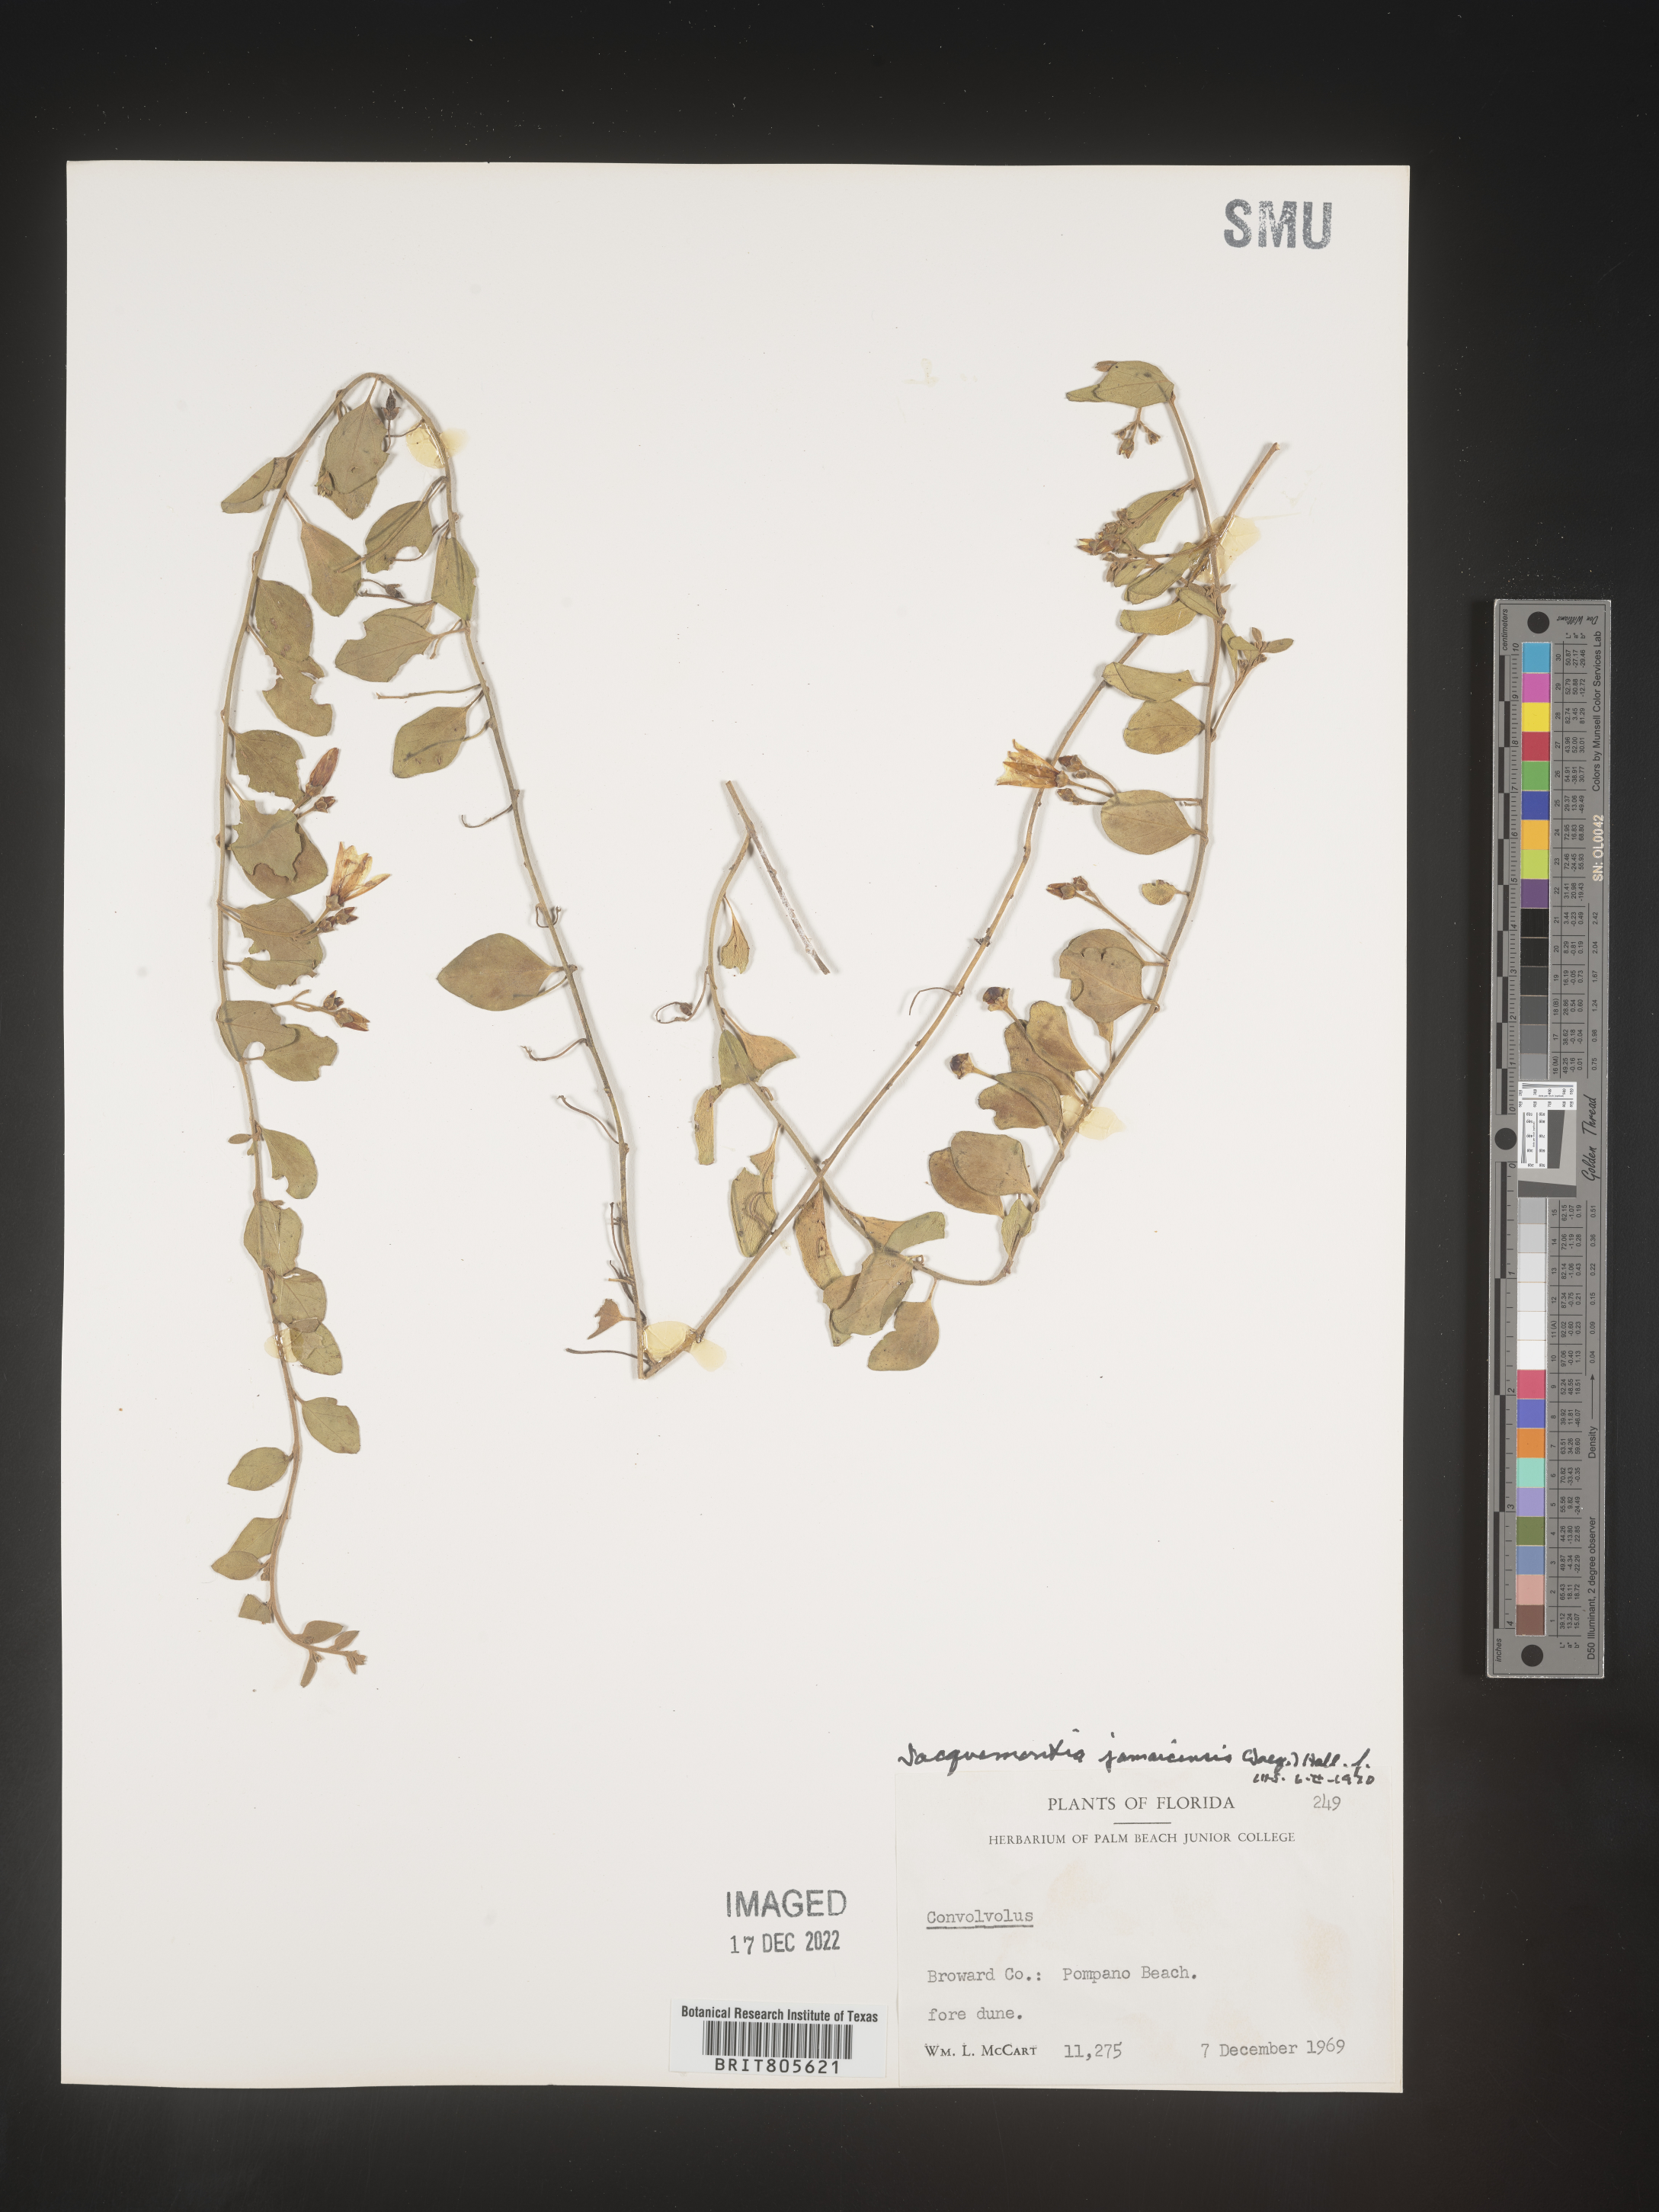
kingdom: Plantae
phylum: Tracheophyta
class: Magnoliopsida
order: Solanales
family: Convolvulaceae
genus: Jacquemontia
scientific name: Jacquemontia
